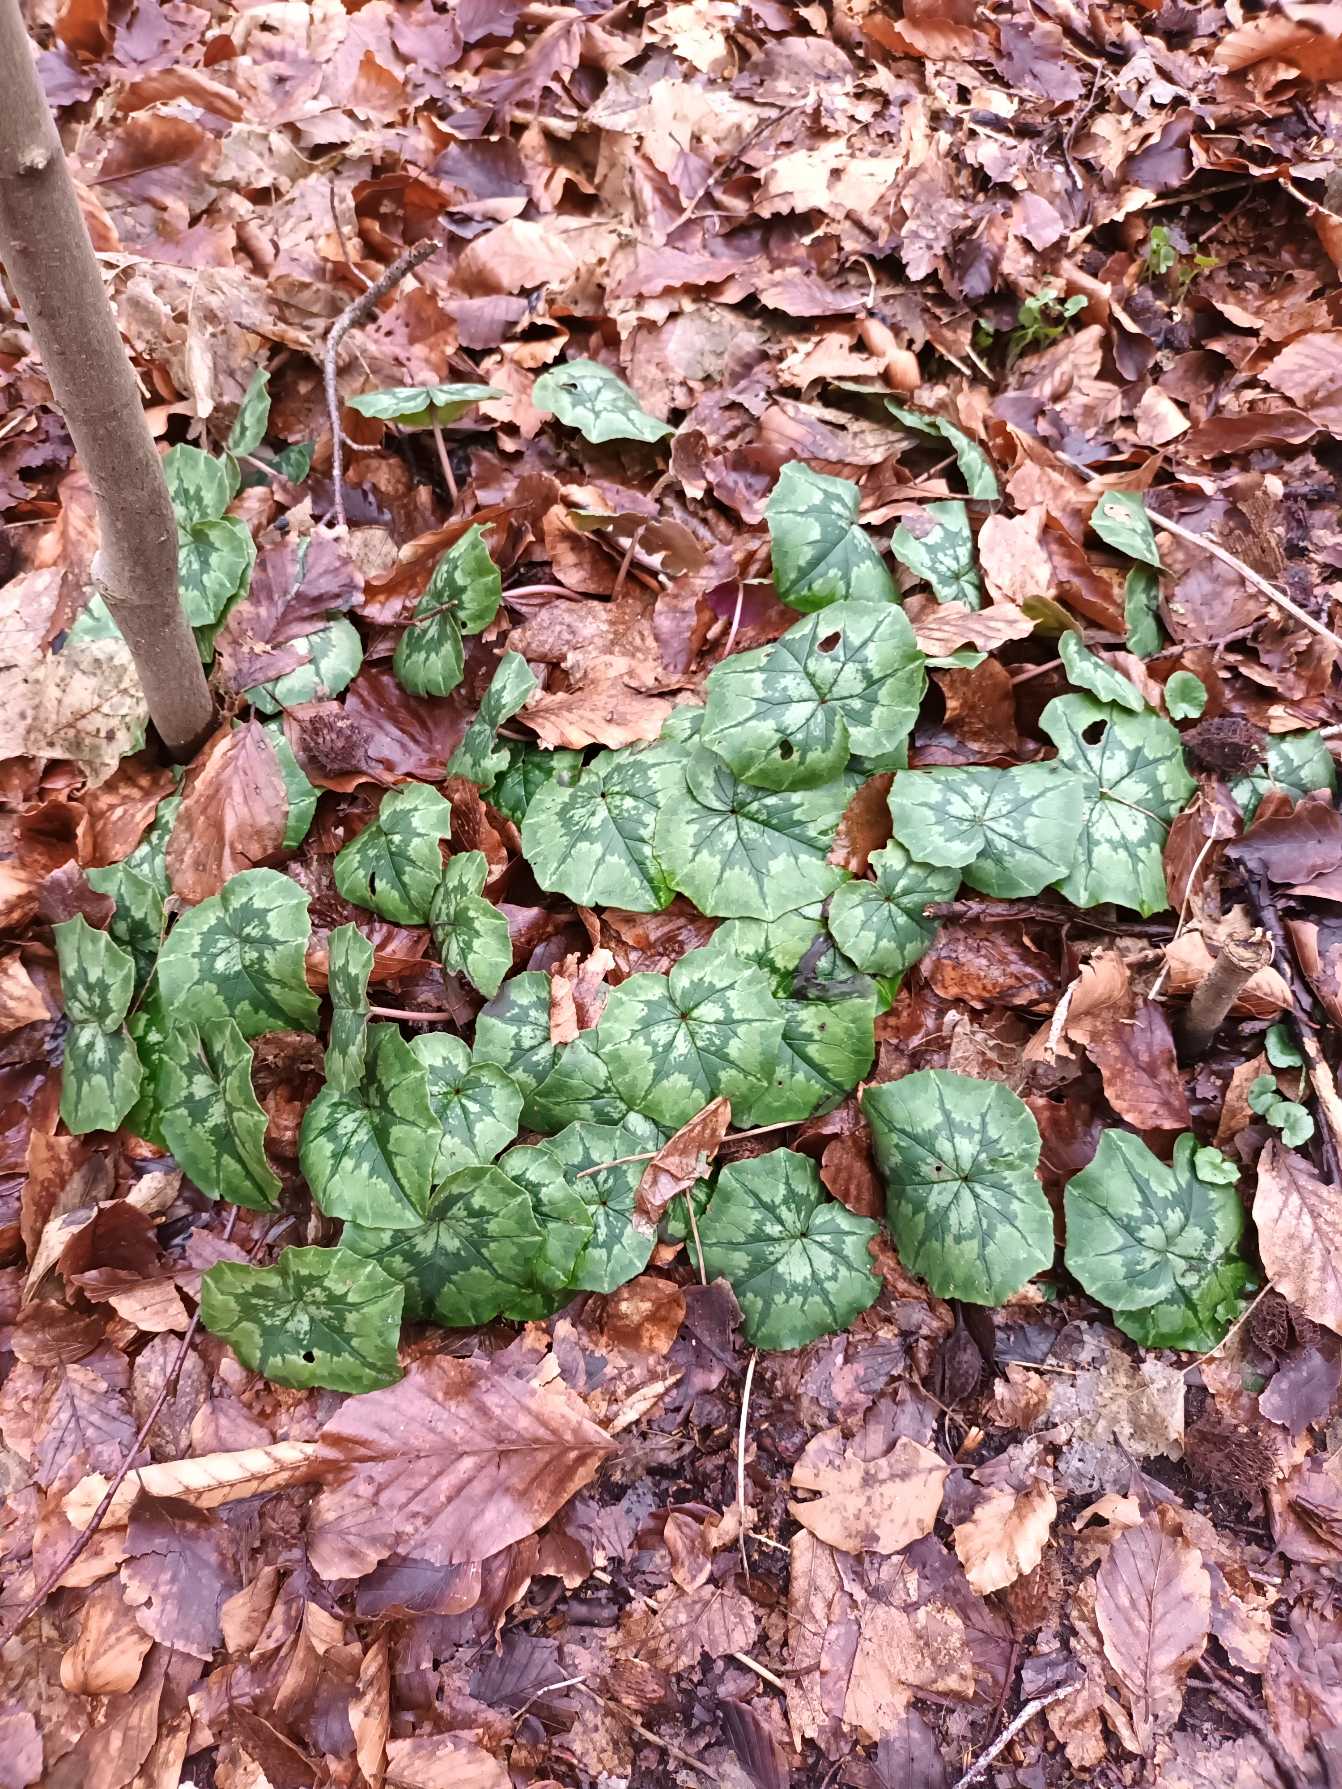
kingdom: Plantae
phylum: Tracheophyta
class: Magnoliopsida
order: Ericales
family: Primulaceae
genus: Cyclamen
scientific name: Cyclamen hederifolium
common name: Vedbendbladet alpeviol
